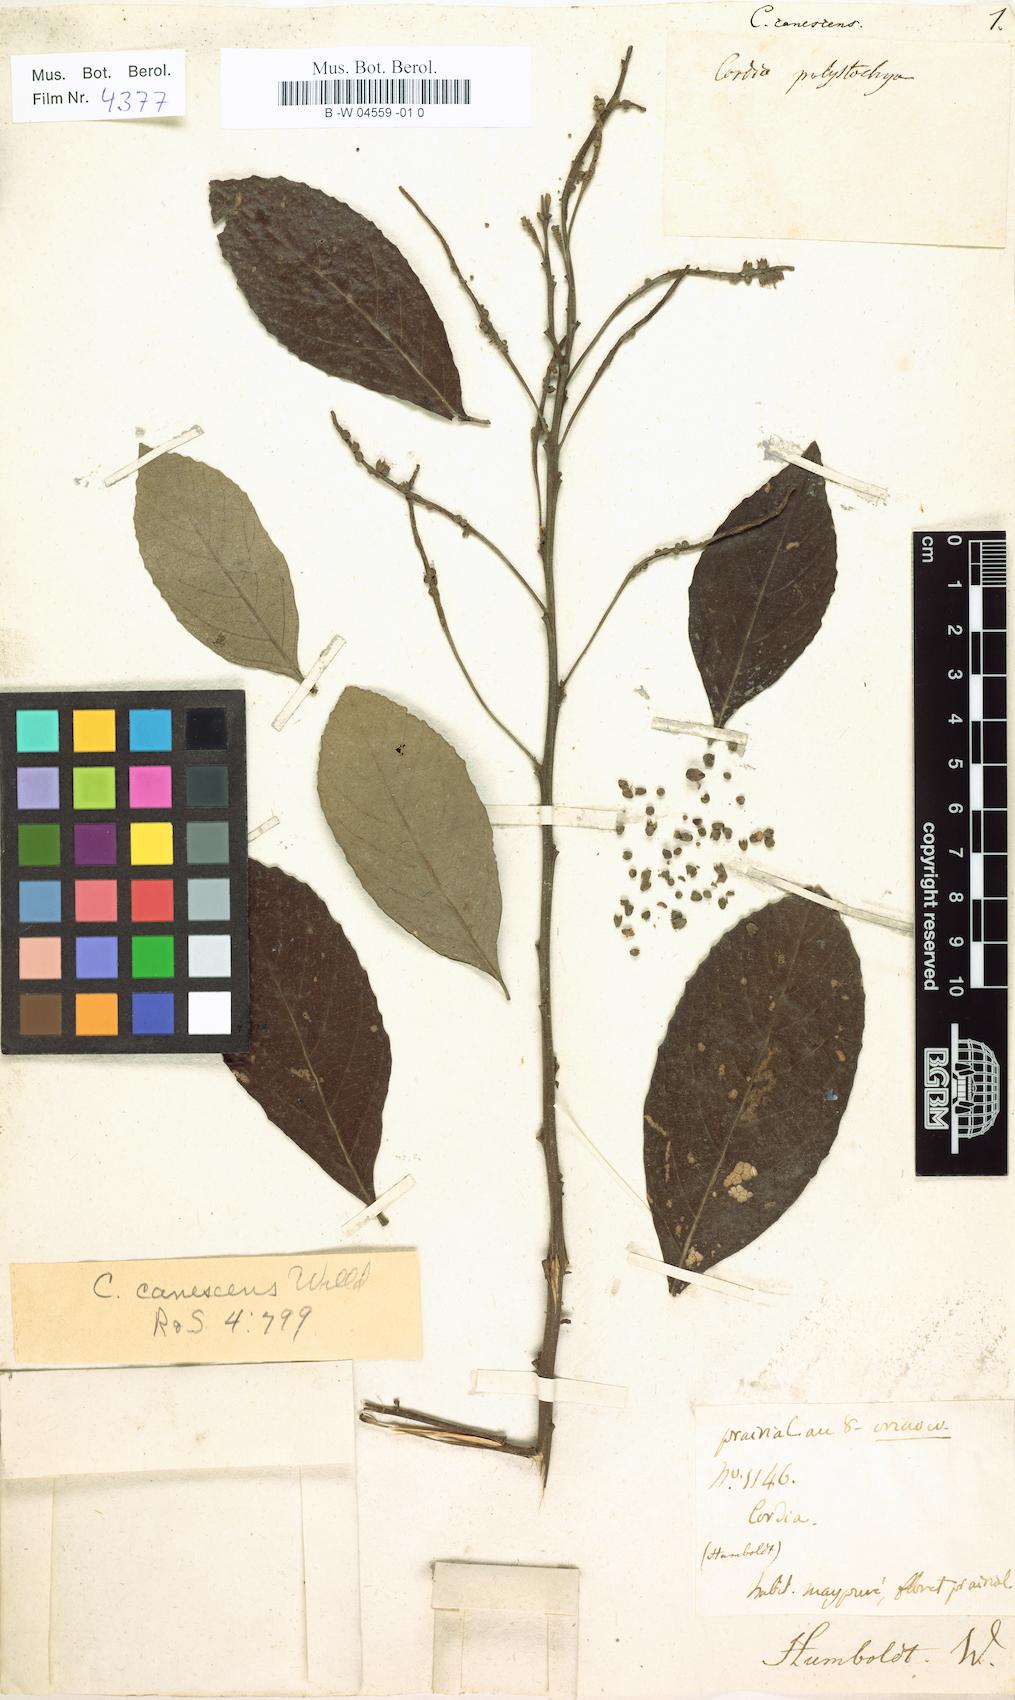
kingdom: Plantae
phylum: Tracheophyta
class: Magnoliopsida
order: Boraginales
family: Cordiaceae
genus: Varronia
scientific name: Varronia curassavica
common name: Black sage
